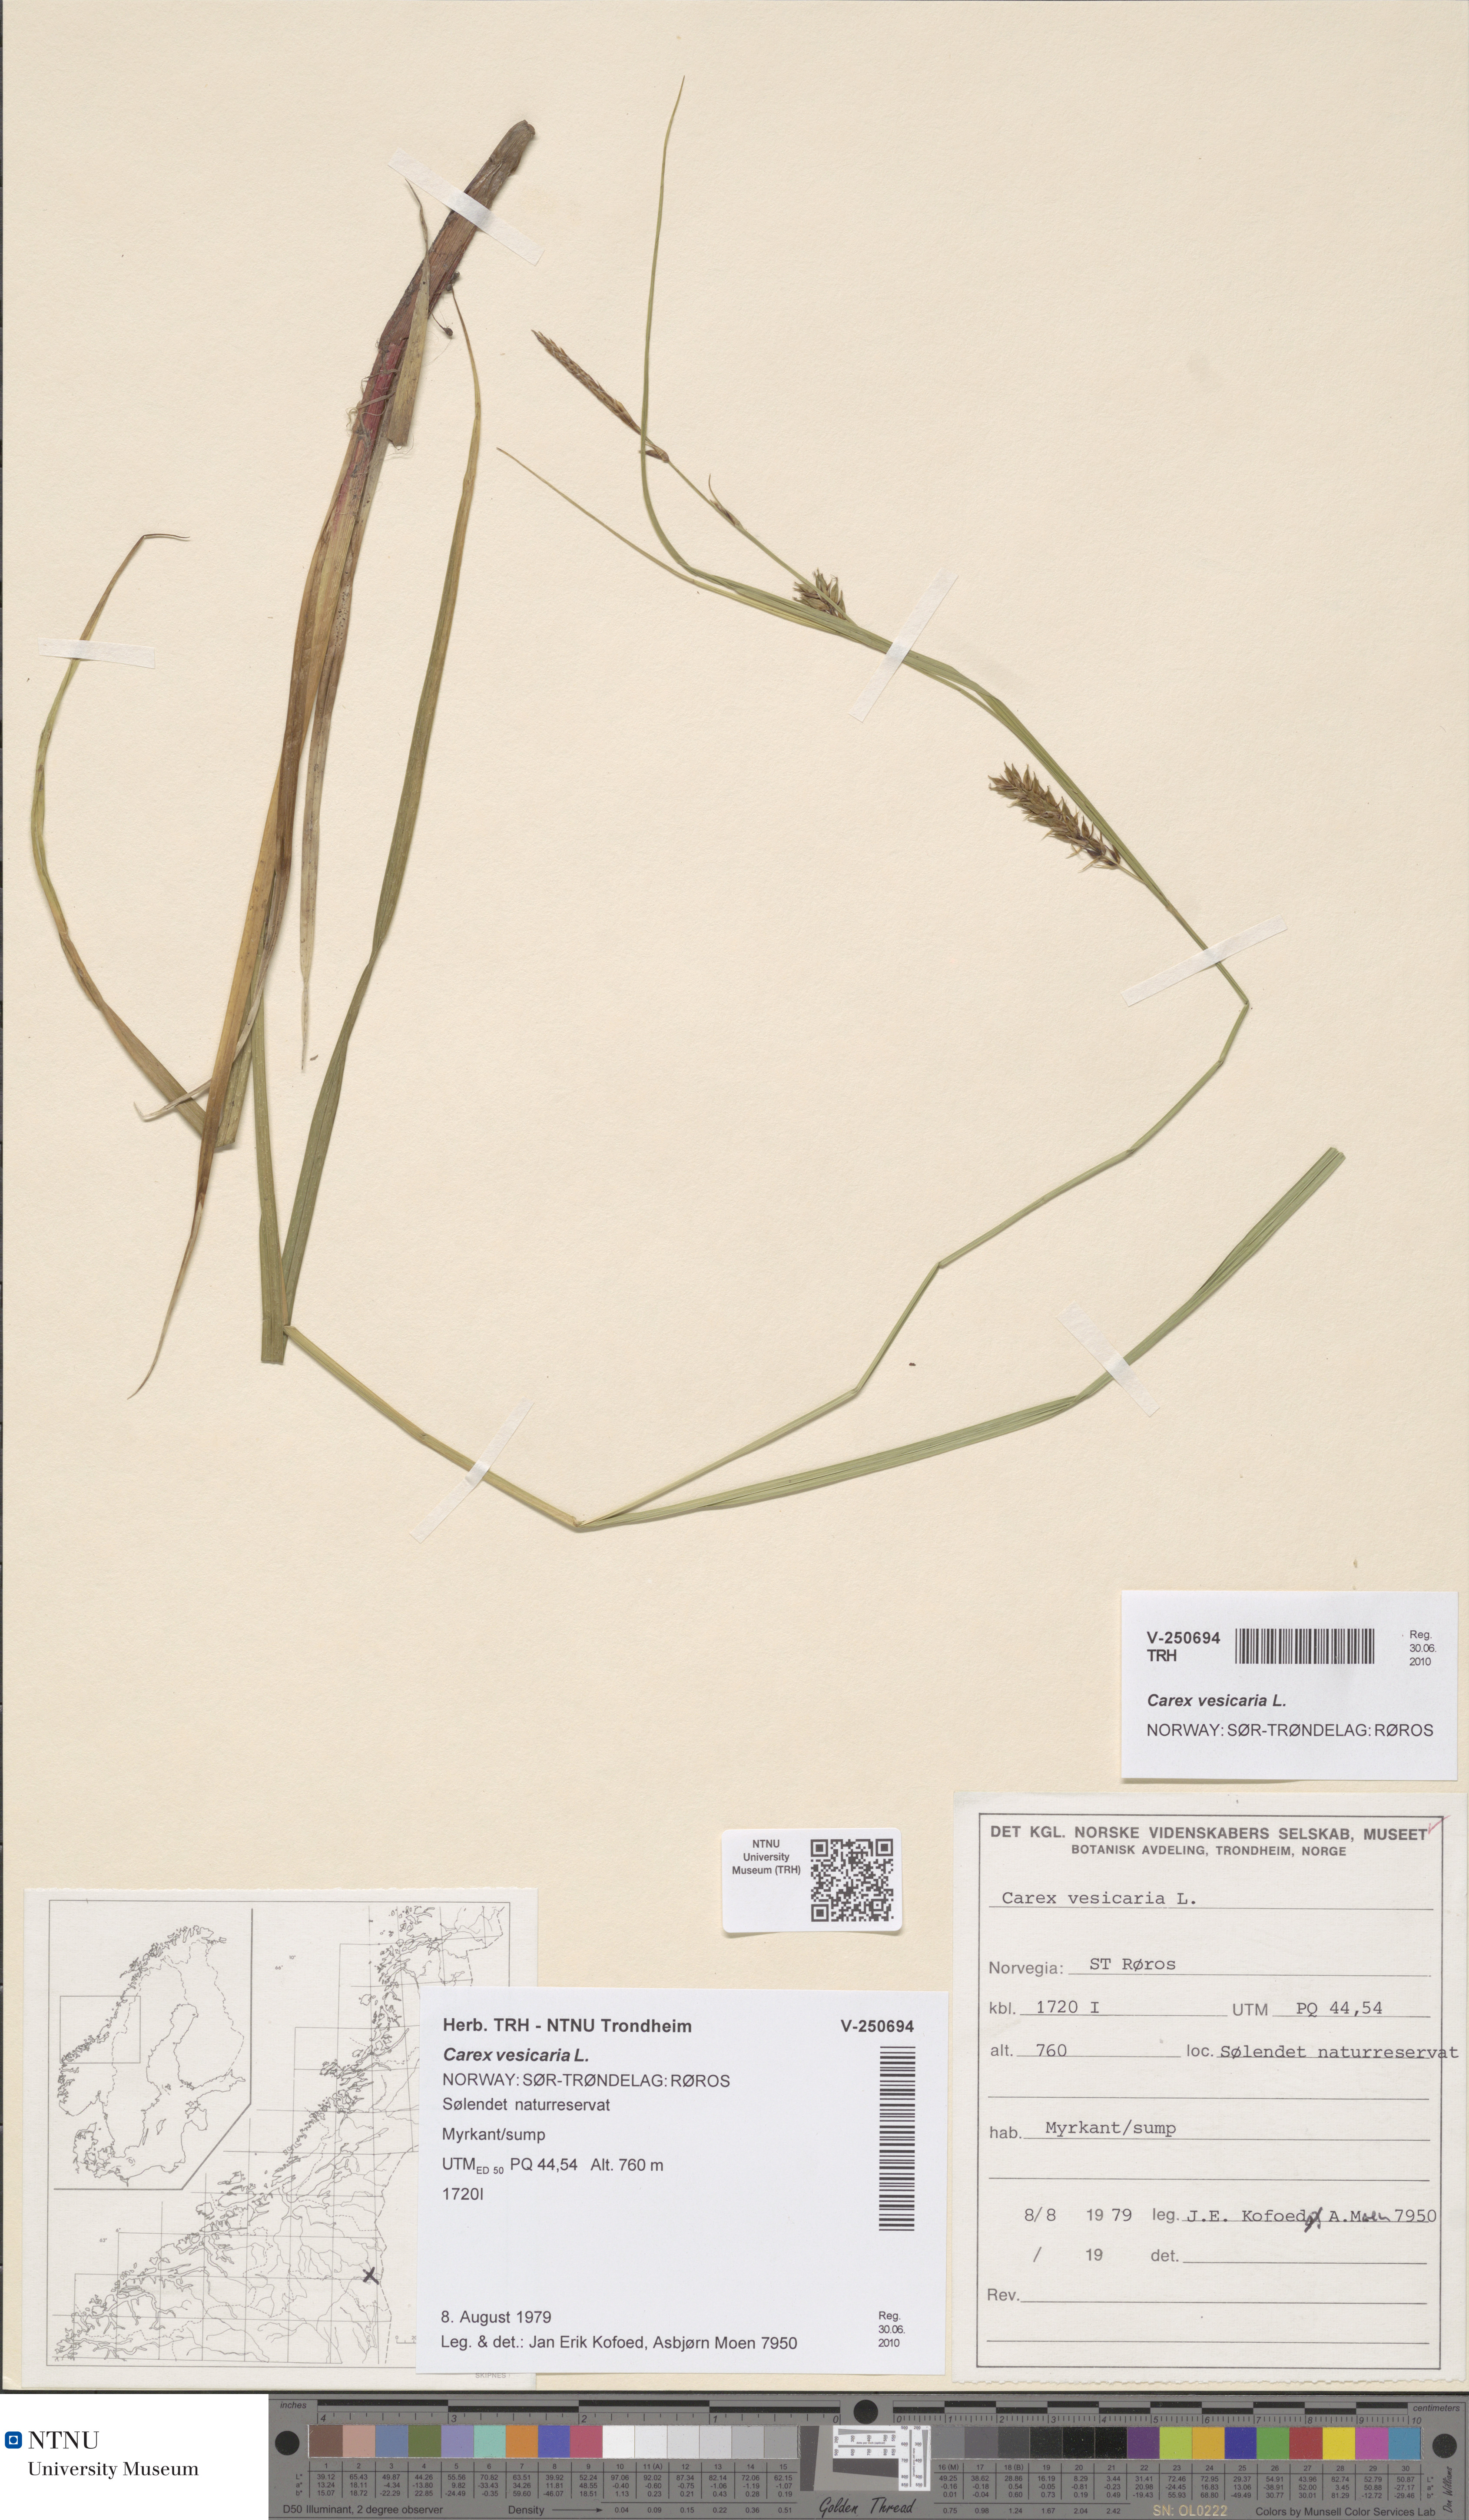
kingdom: Plantae
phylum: Tracheophyta
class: Liliopsida
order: Poales
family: Cyperaceae
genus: Carex
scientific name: Carex vesicaria
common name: Bladder-sedge
